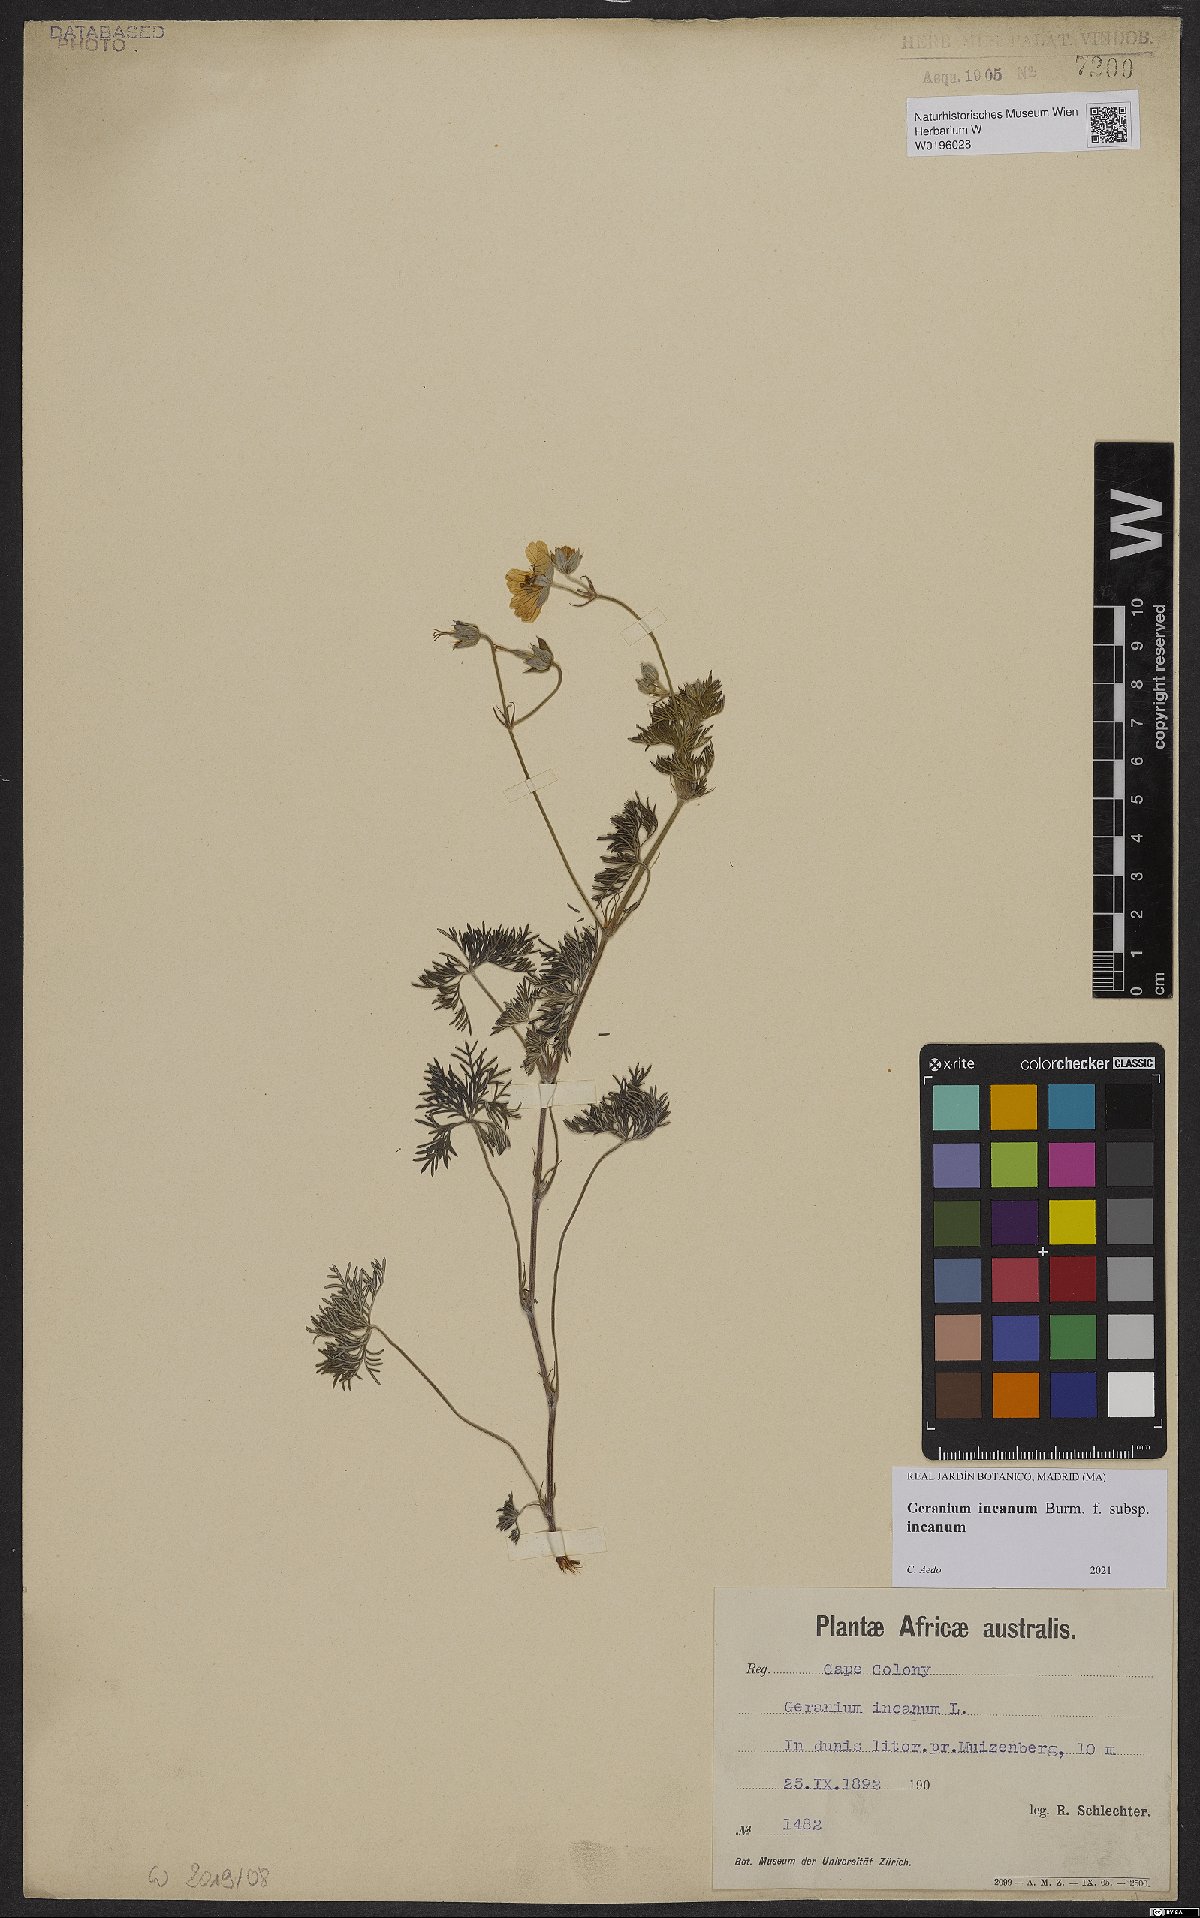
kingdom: Plantae
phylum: Tracheophyta
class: Magnoliopsida
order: Geraniales
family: Geraniaceae
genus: Geranium
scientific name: Geranium incanum
